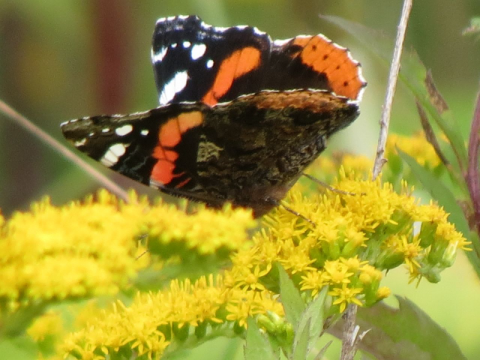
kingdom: Animalia
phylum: Arthropoda
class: Insecta
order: Lepidoptera
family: Nymphalidae
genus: Vanessa
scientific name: Vanessa atalanta
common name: Red Admiral
